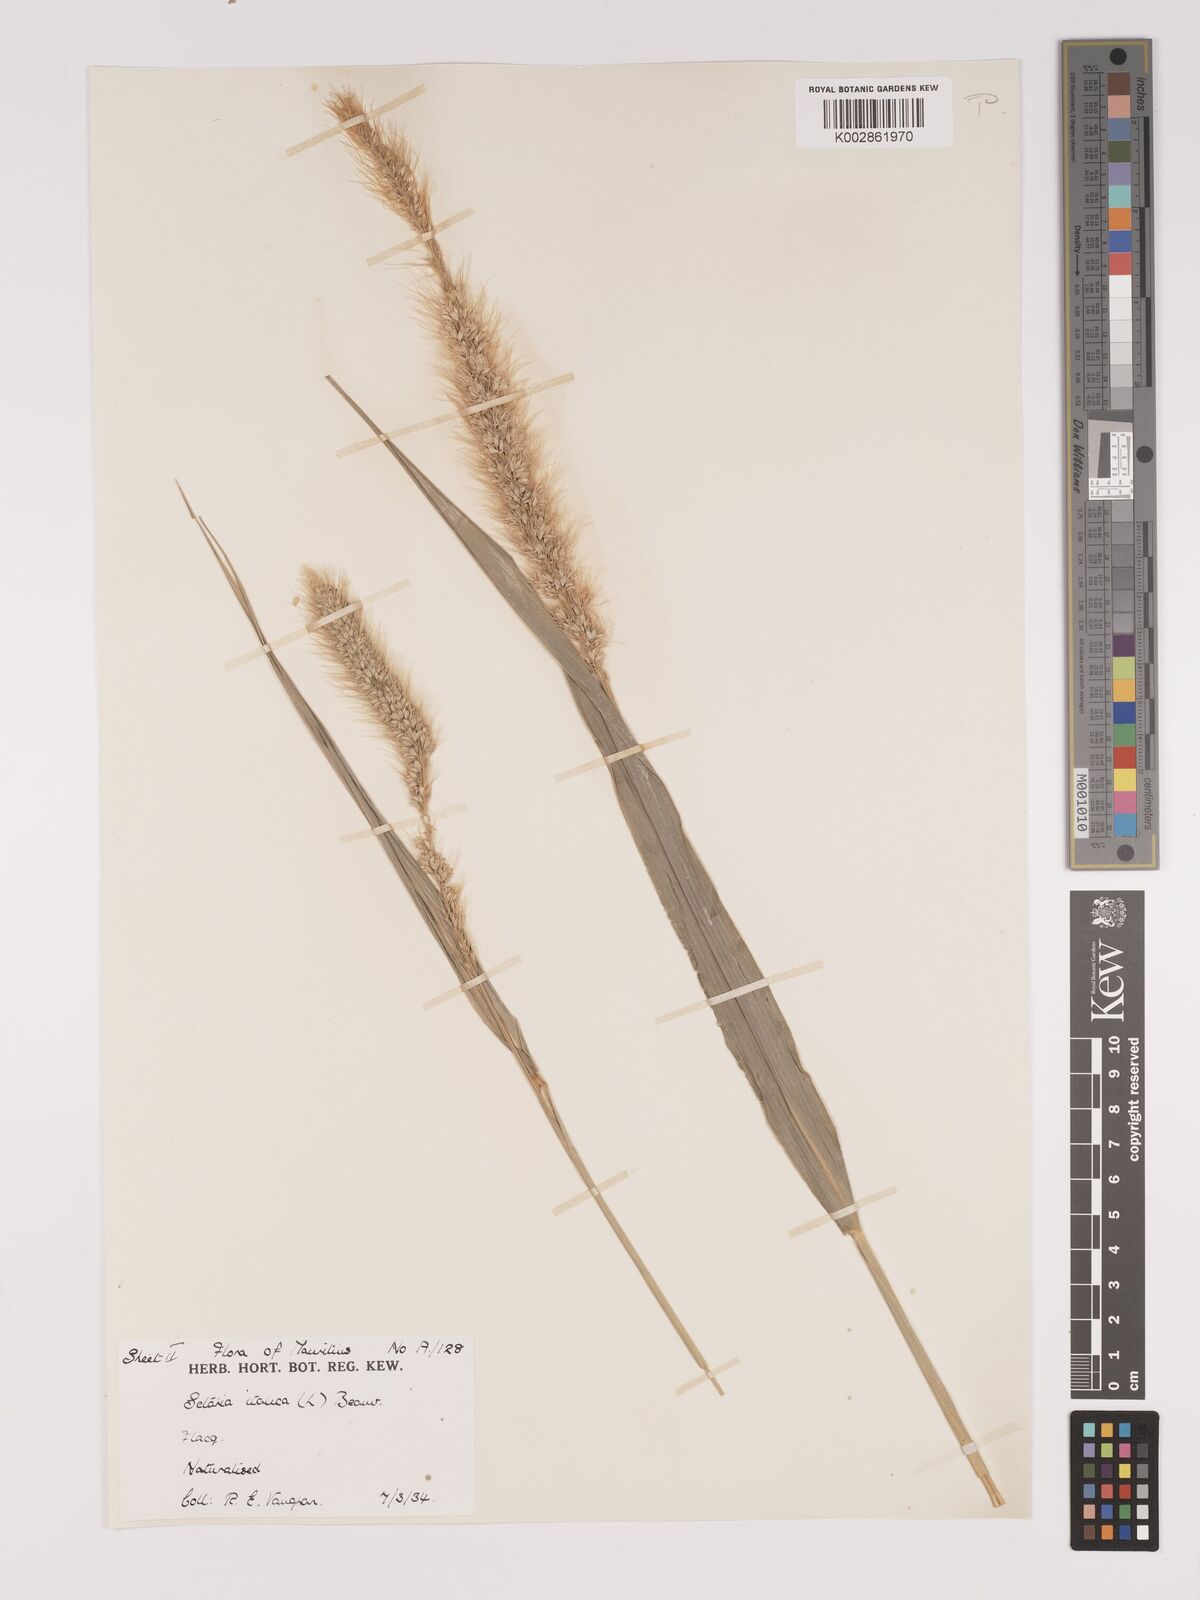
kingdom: Plantae
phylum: Tracheophyta
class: Liliopsida
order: Poales
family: Poaceae
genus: Setaria
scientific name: Setaria italica
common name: Foxtail bristle-grass
